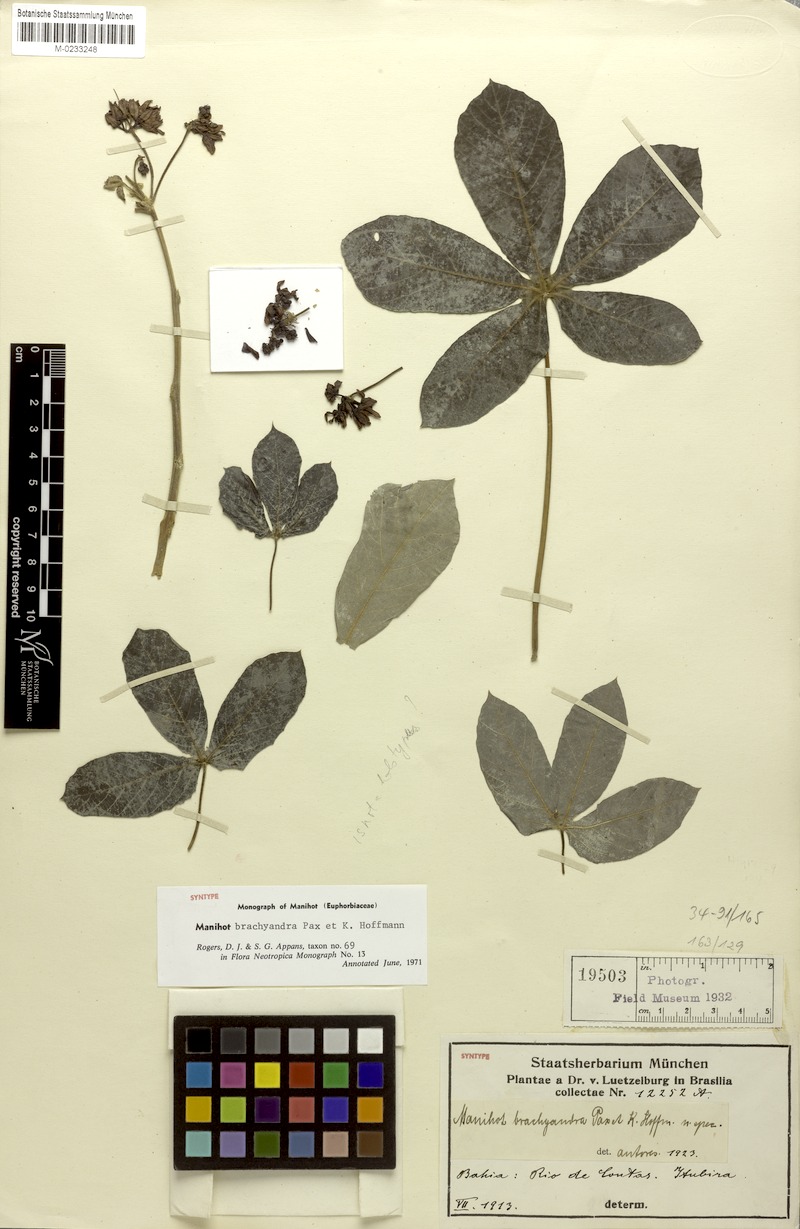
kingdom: Plantae
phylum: Tracheophyta
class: Magnoliopsida
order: Malpighiales
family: Euphorbiaceae
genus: Manihot
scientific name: Manihot brachyandra
